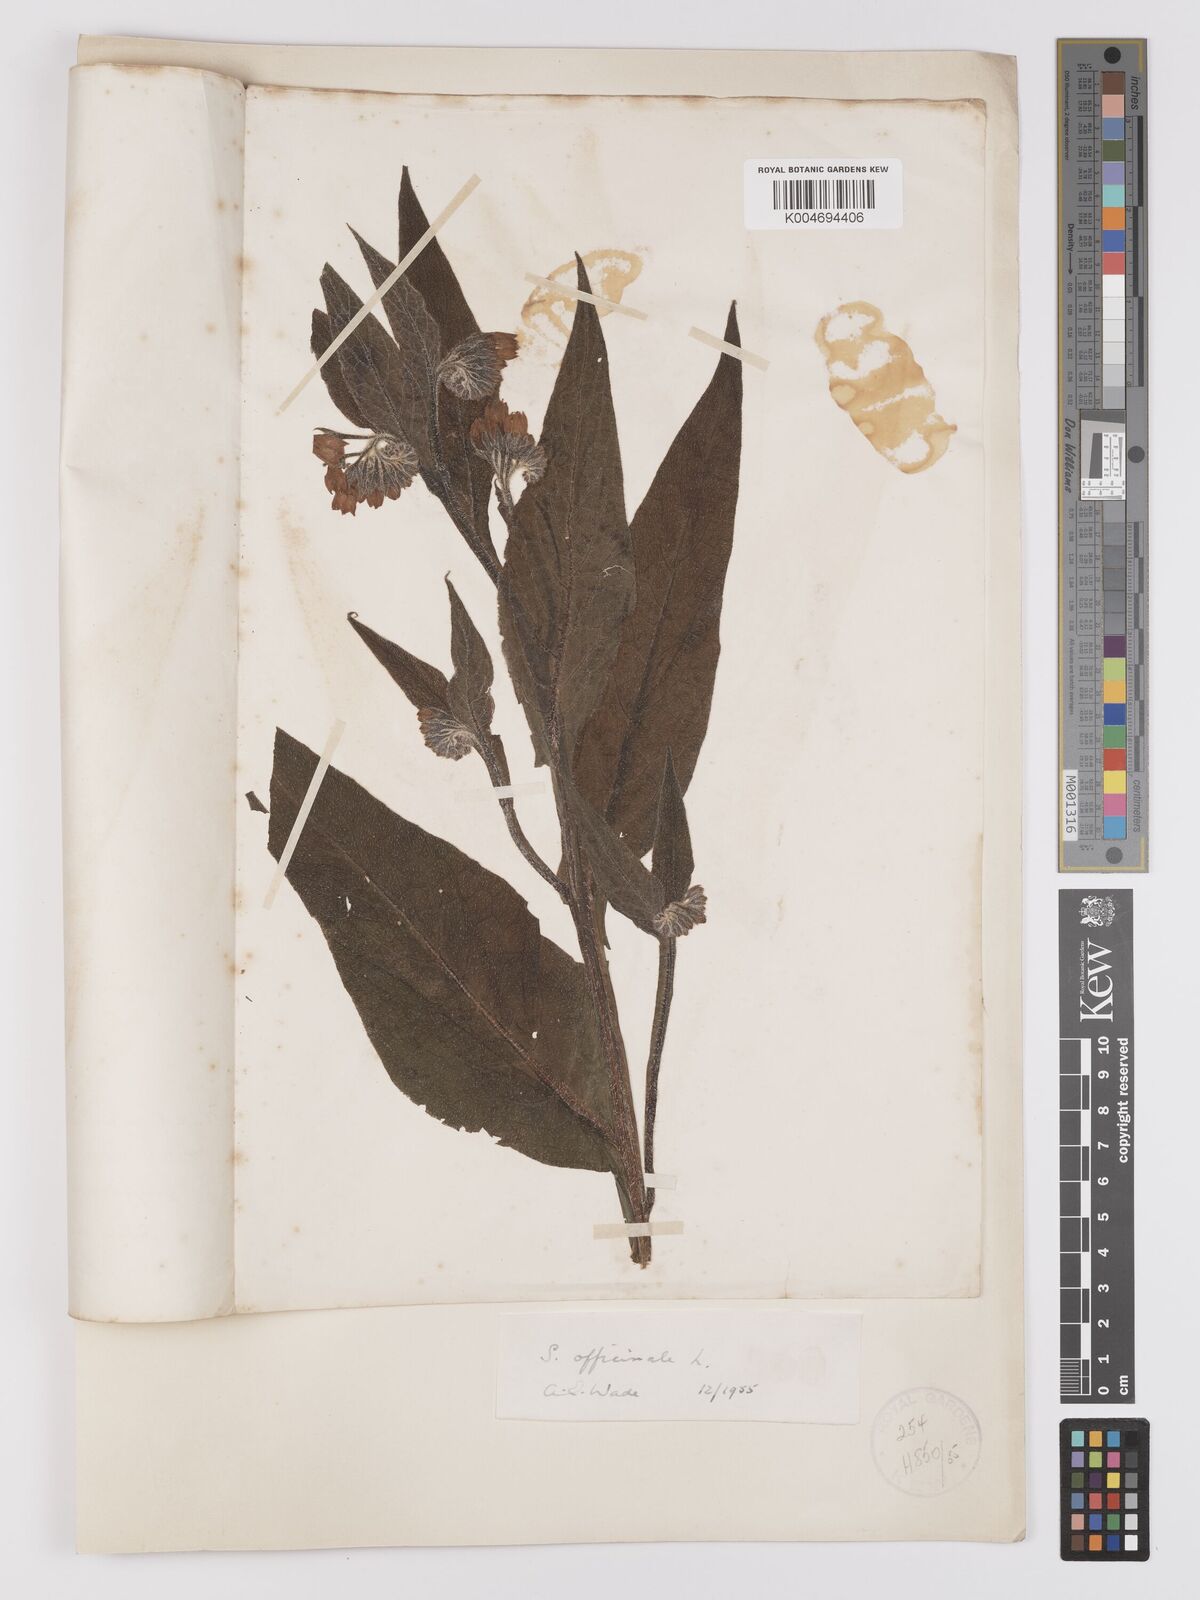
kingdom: Plantae
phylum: Tracheophyta
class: Magnoliopsida
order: Boraginales
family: Boraginaceae
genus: Symphytum
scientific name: Symphytum officinale
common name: Common comfrey
